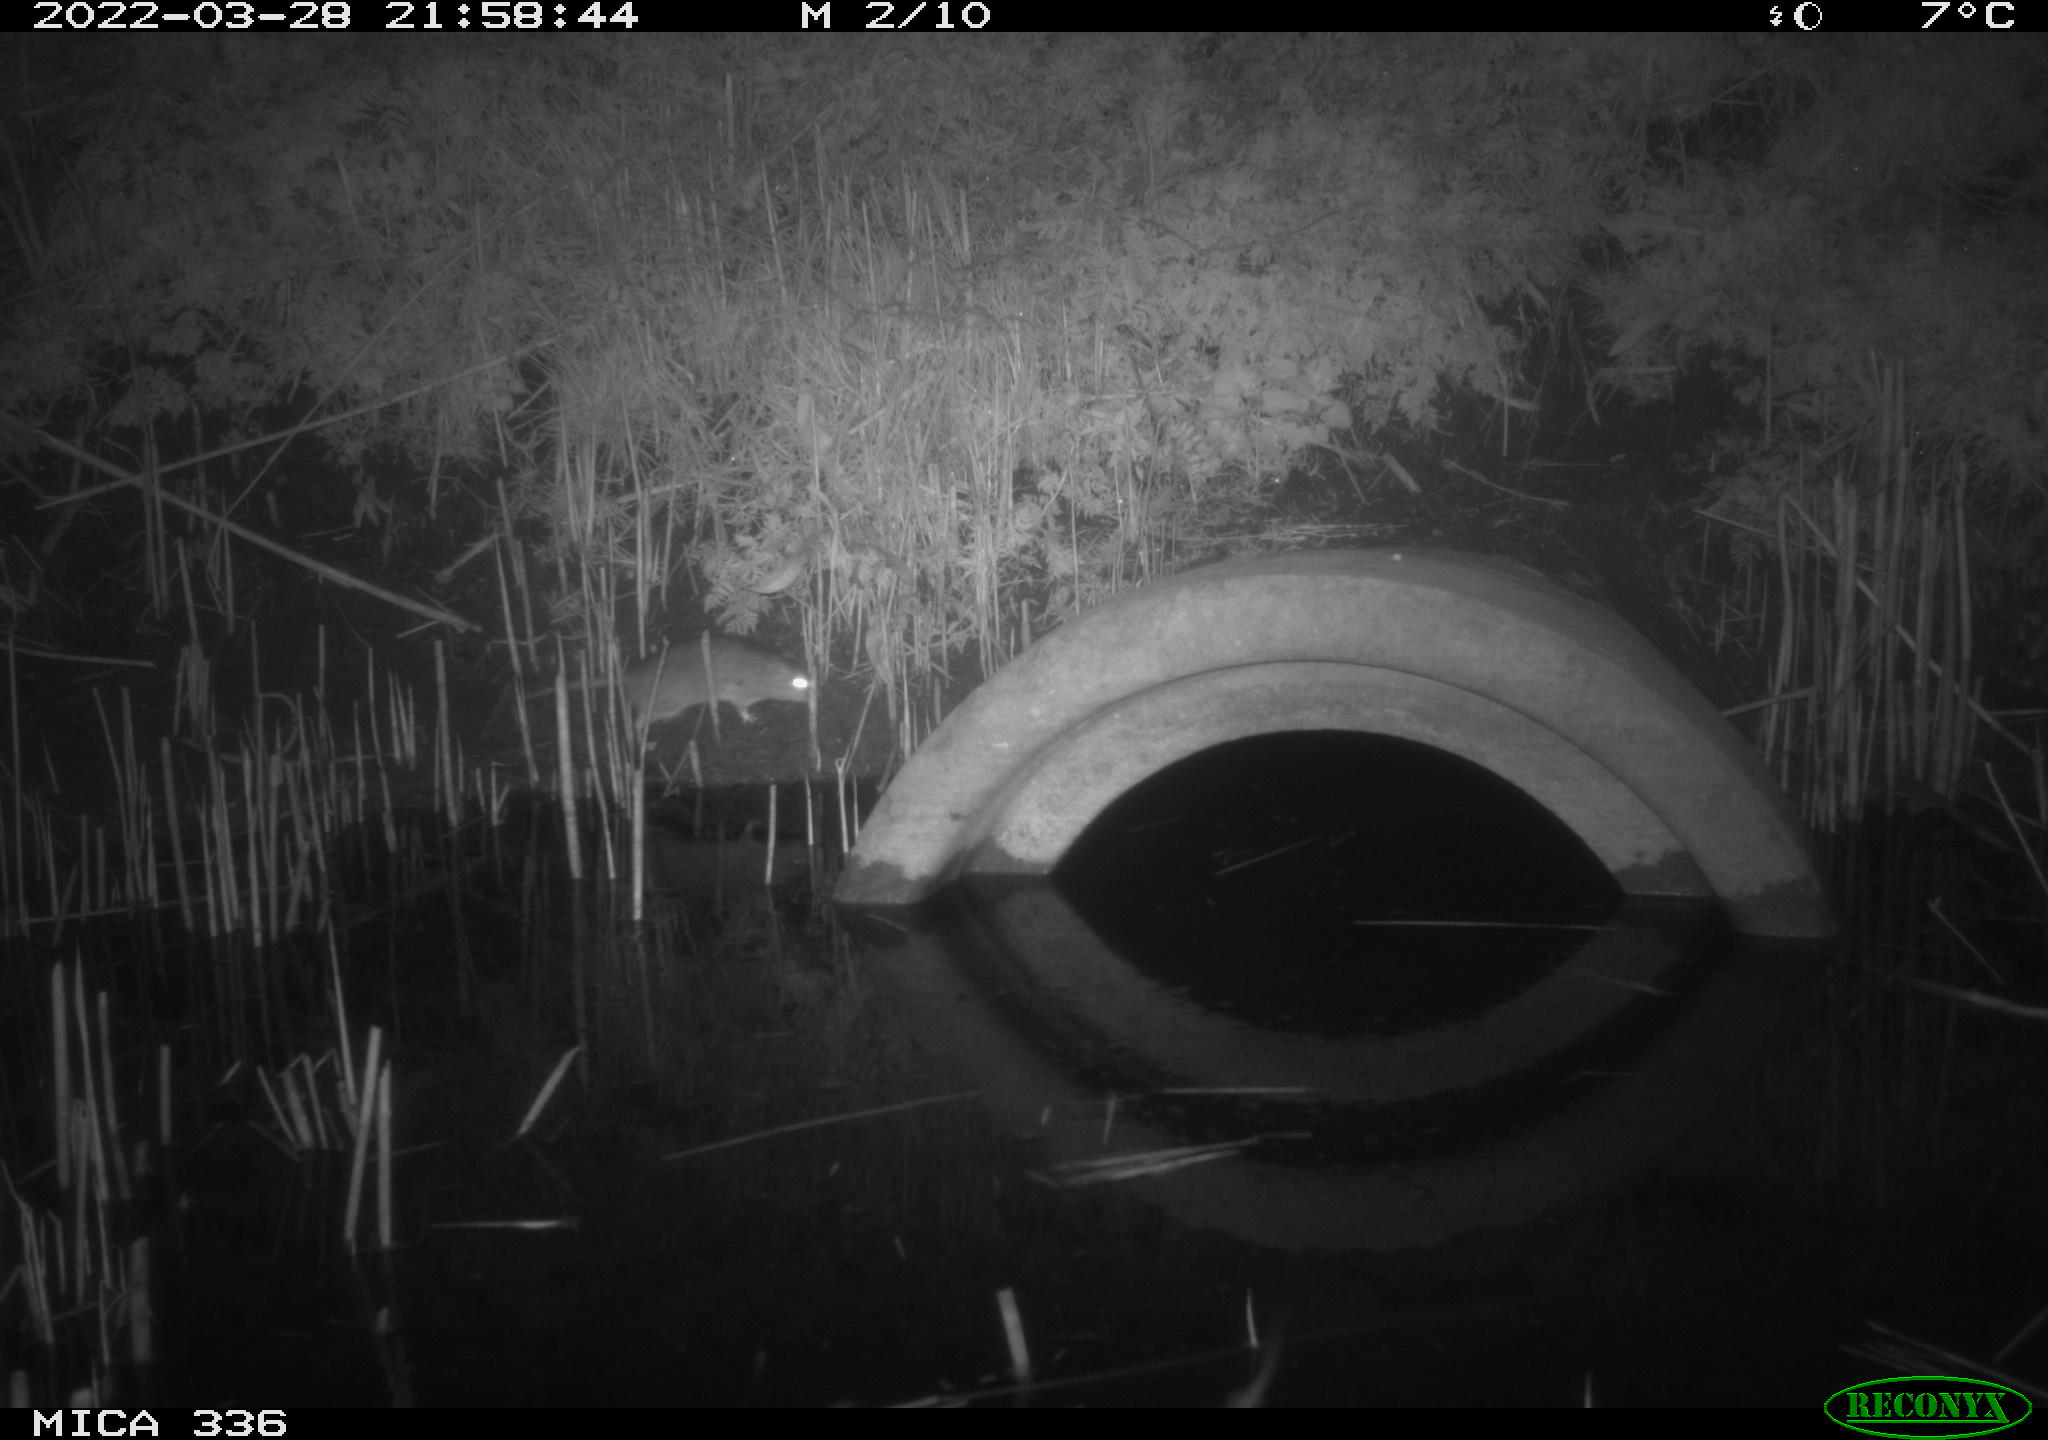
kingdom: Animalia
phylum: Chordata
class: Mammalia
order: Rodentia
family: Muridae
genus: Rattus
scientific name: Rattus norvegicus
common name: Brown rat
